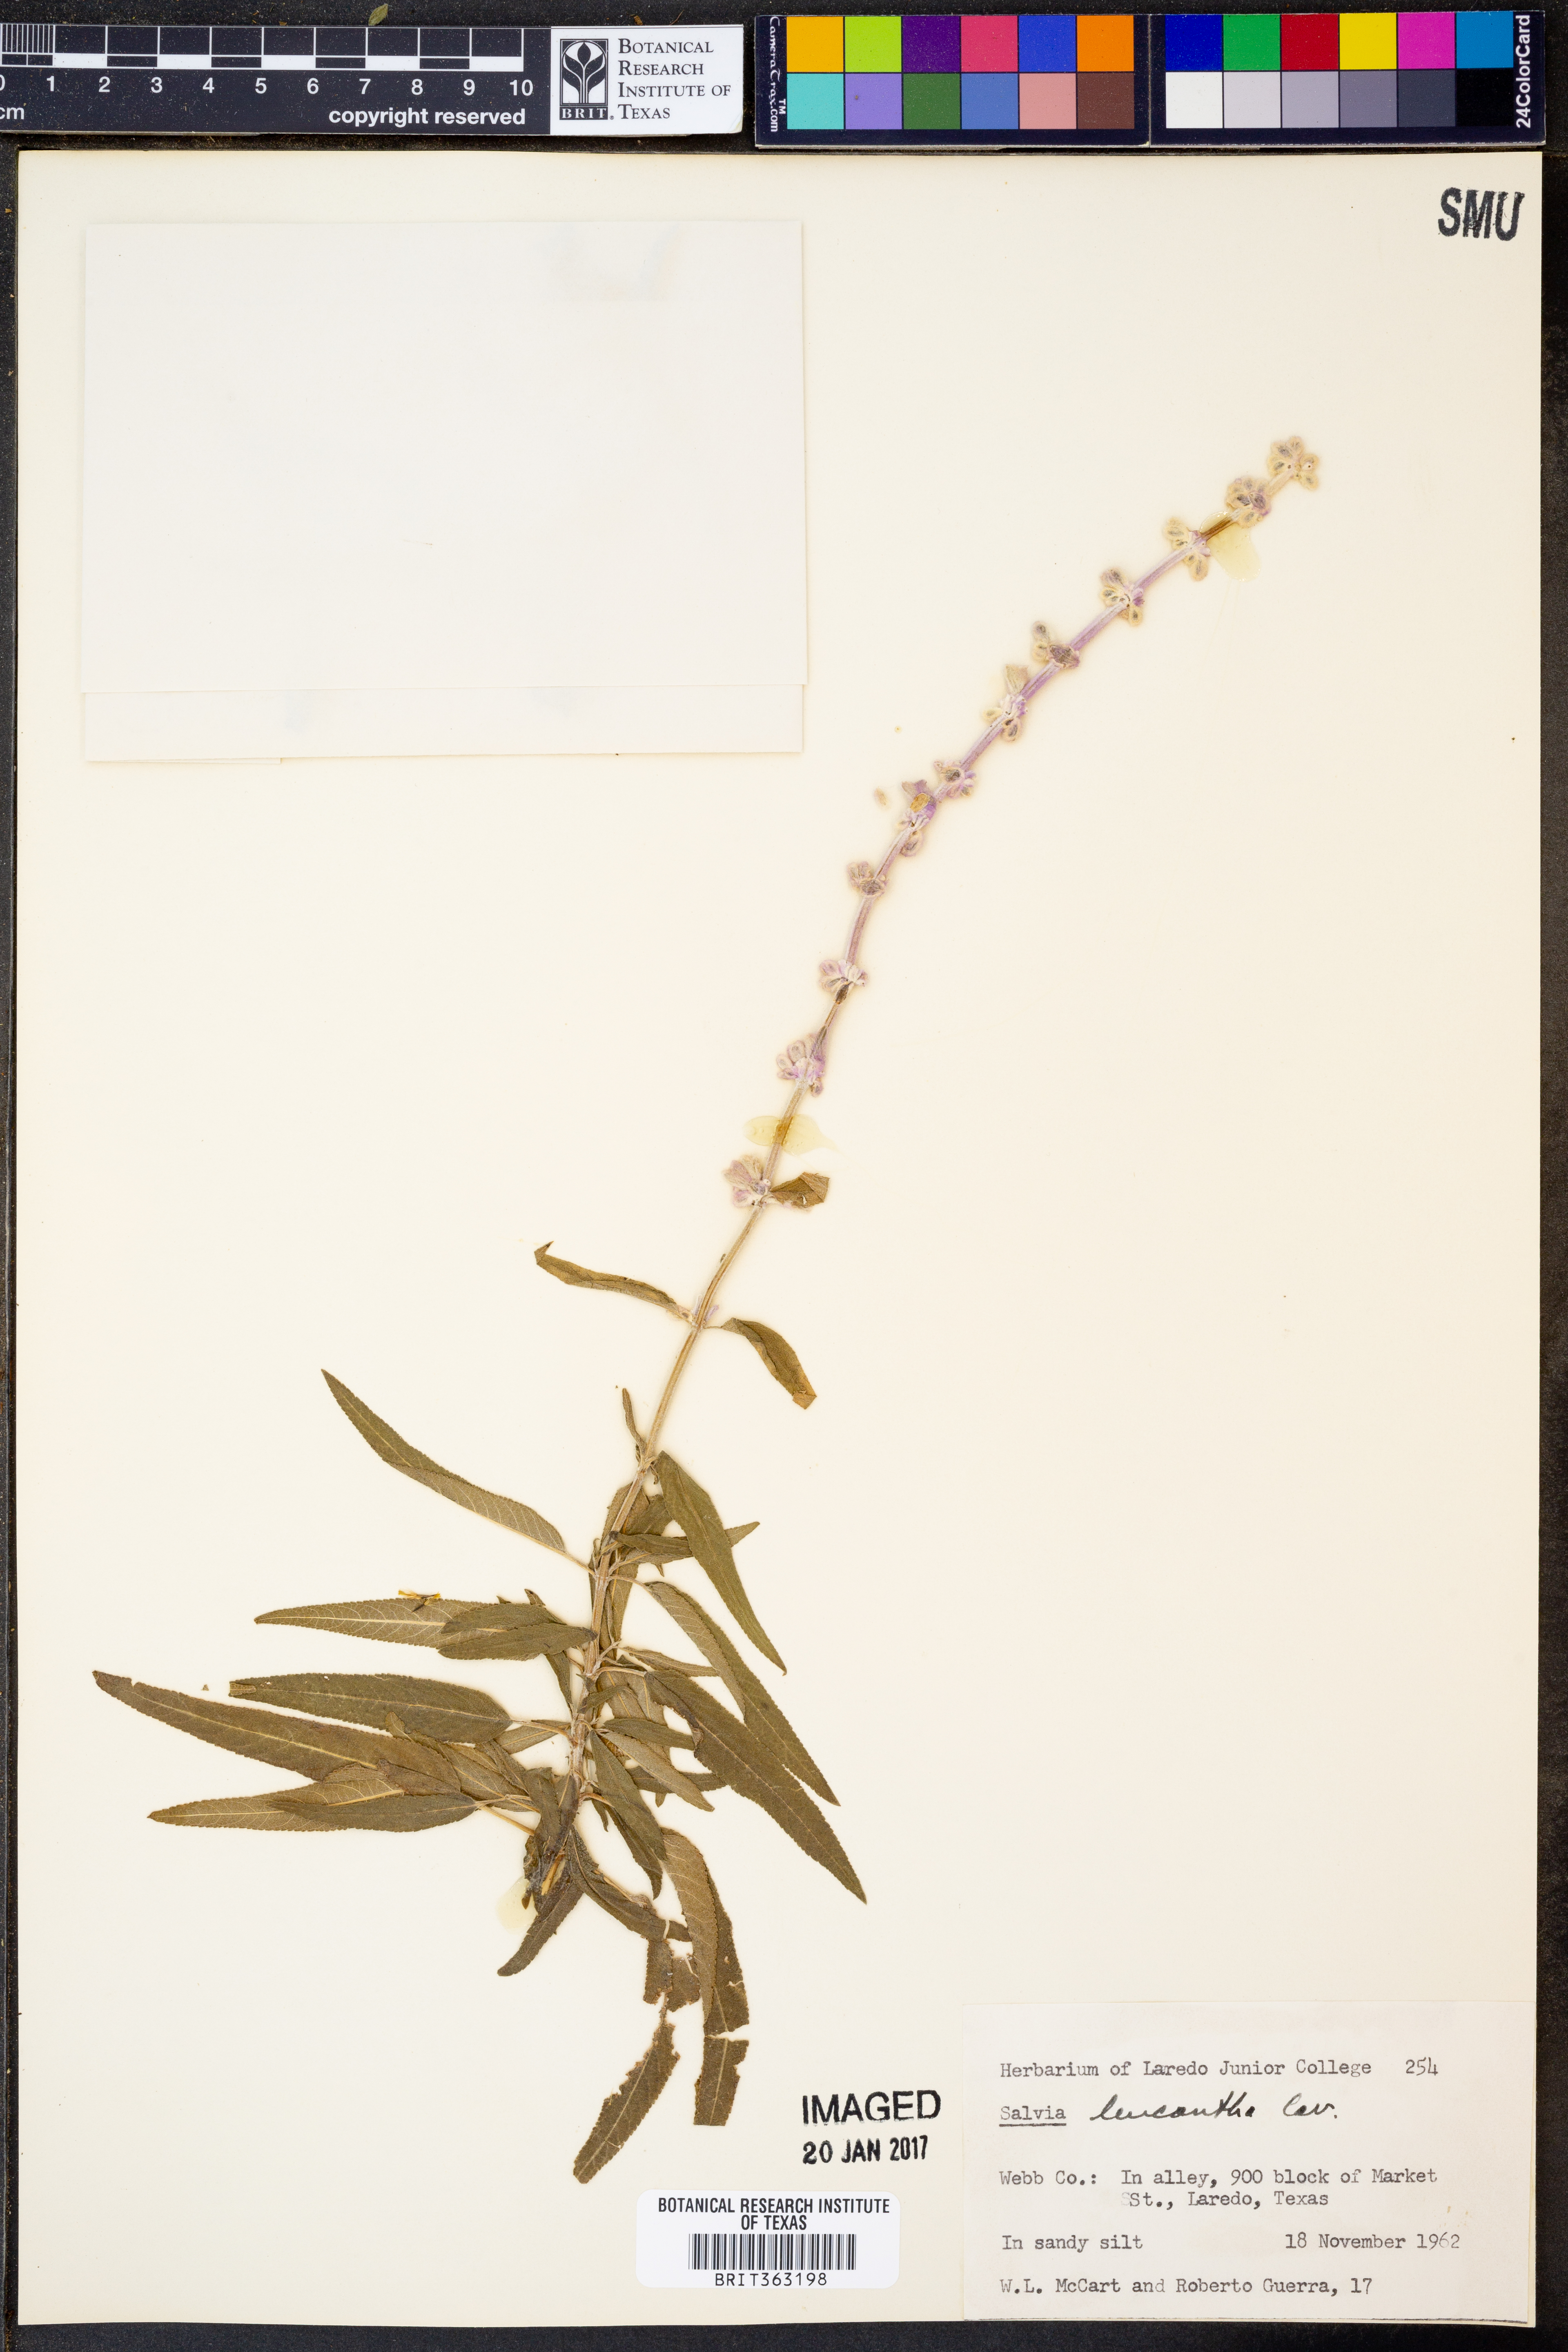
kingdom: Plantae
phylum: Tracheophyta
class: Magnoliopsida
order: Lamiales
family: Lamiaceae
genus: Salvia
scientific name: Salvia leucantha
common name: Mexican bush sage
